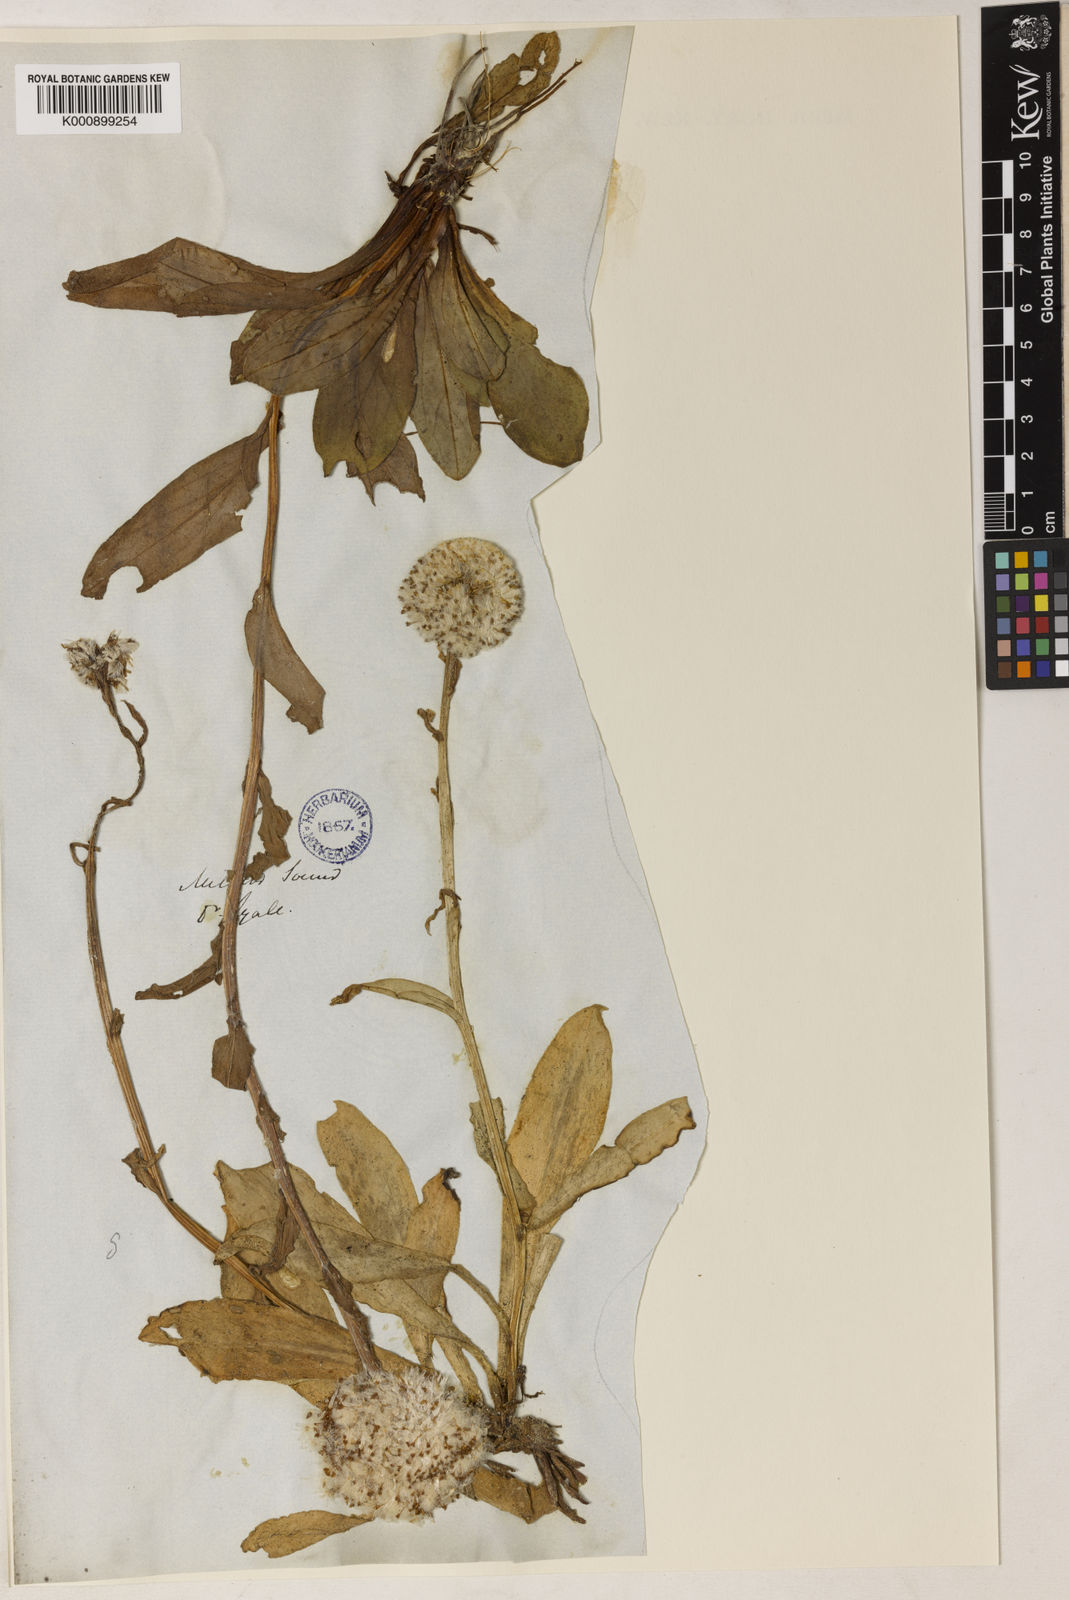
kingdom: Plantae
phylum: Tracheophyta
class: Magnoliopsida
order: Asterales
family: Asteraceae
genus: Craspedia
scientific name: Craspedia uniflora
